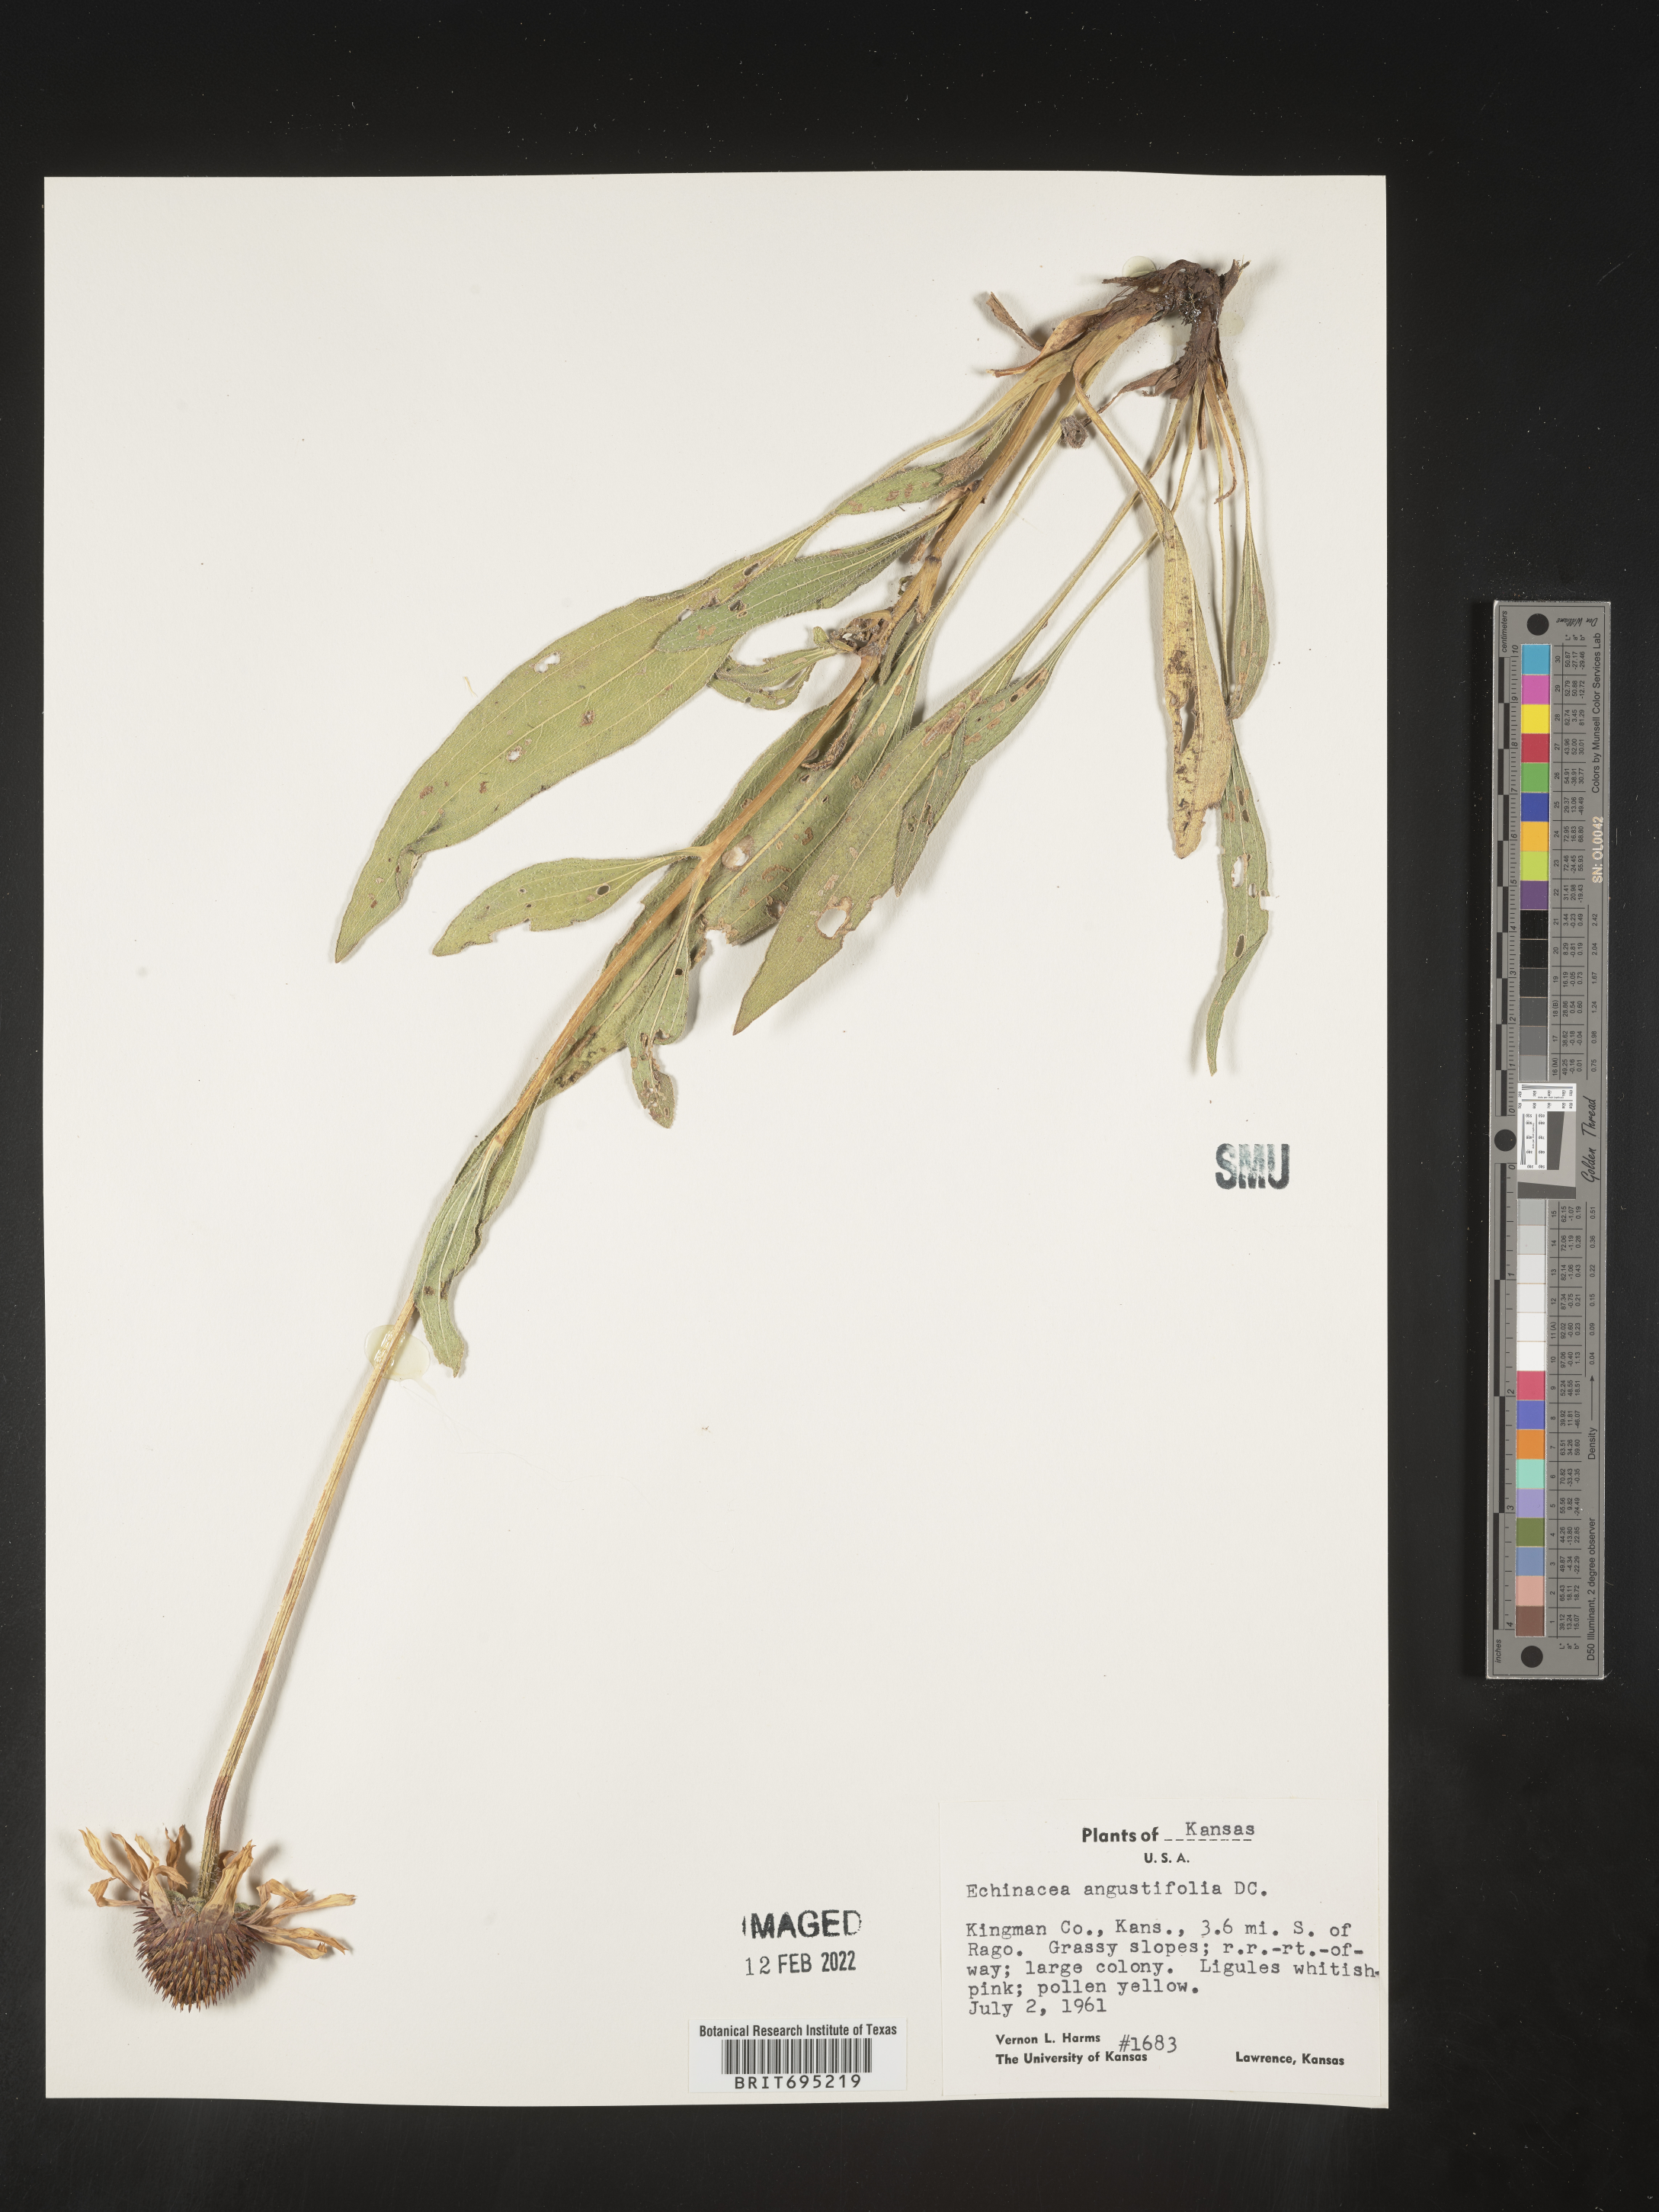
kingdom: Plantae
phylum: Tracheophyta
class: Magnoliopsida
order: Asterales
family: Asteraceae
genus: Echinacea
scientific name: Echinacea angustifolia
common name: Black-sampson echinacea
